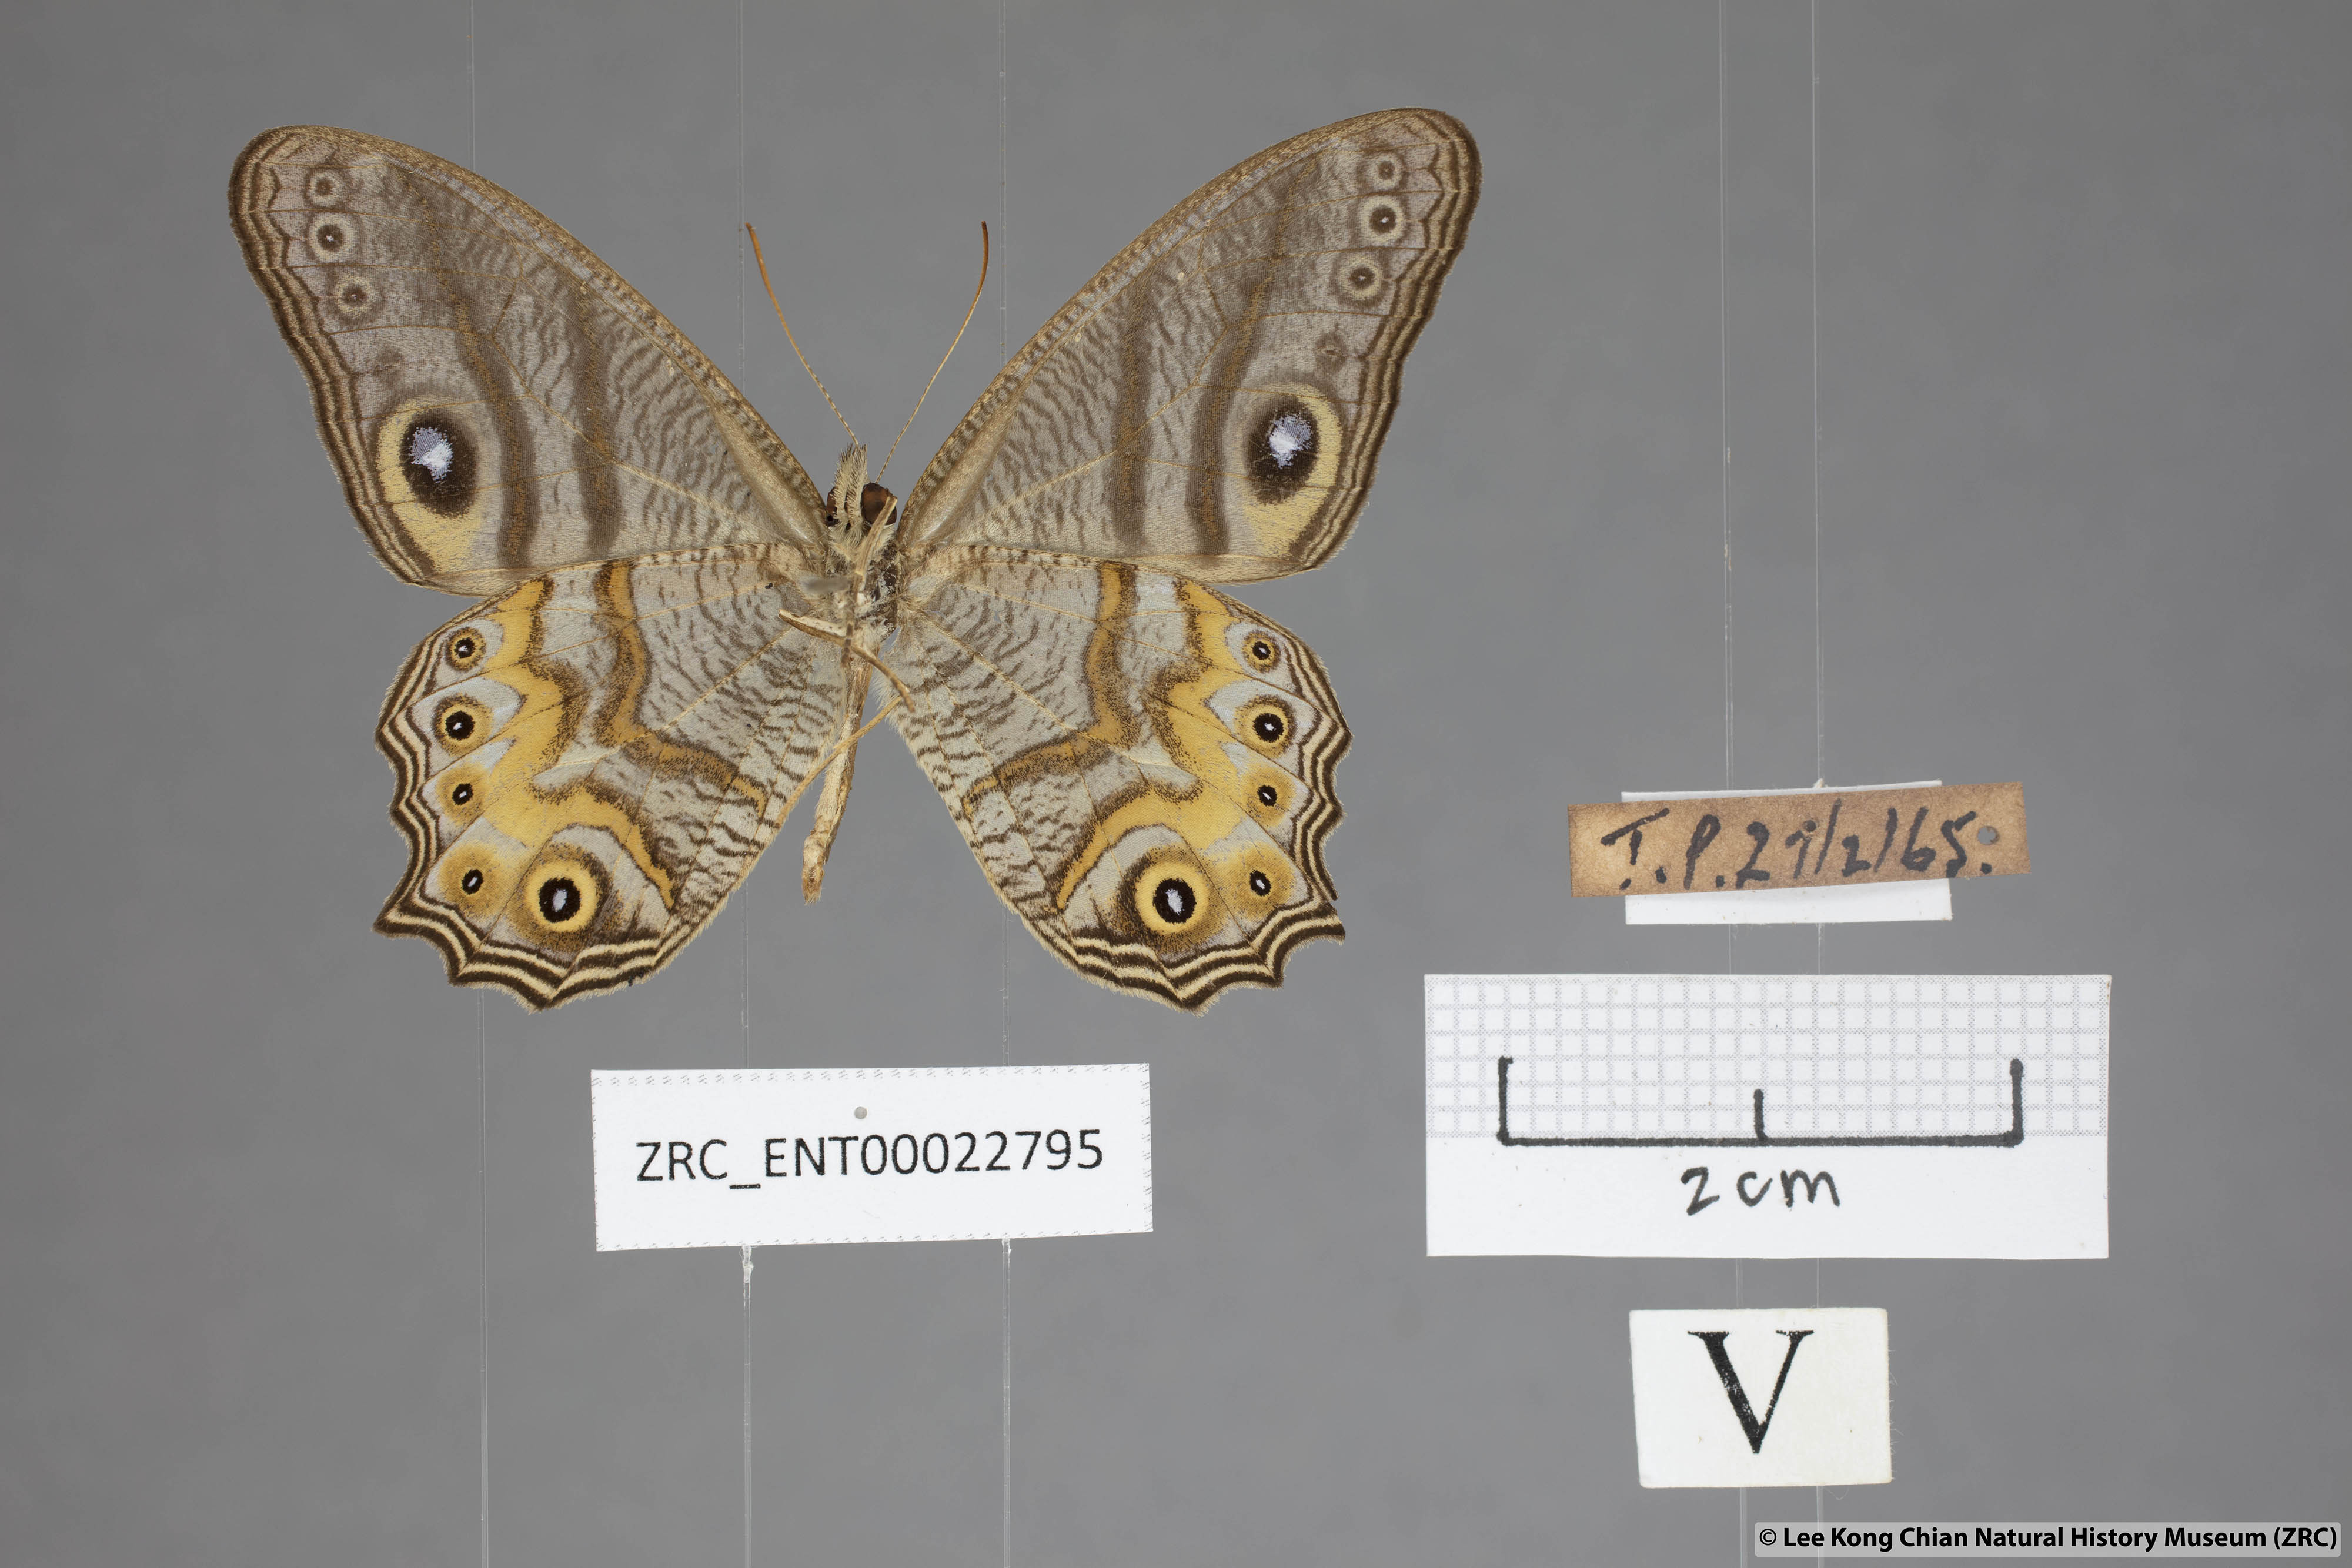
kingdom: Animalia
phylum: Arthropoda
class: Insecta
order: Lepidoptera
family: Nymphalidae
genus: Erites
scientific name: Erites angularis
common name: Angled cyclops
